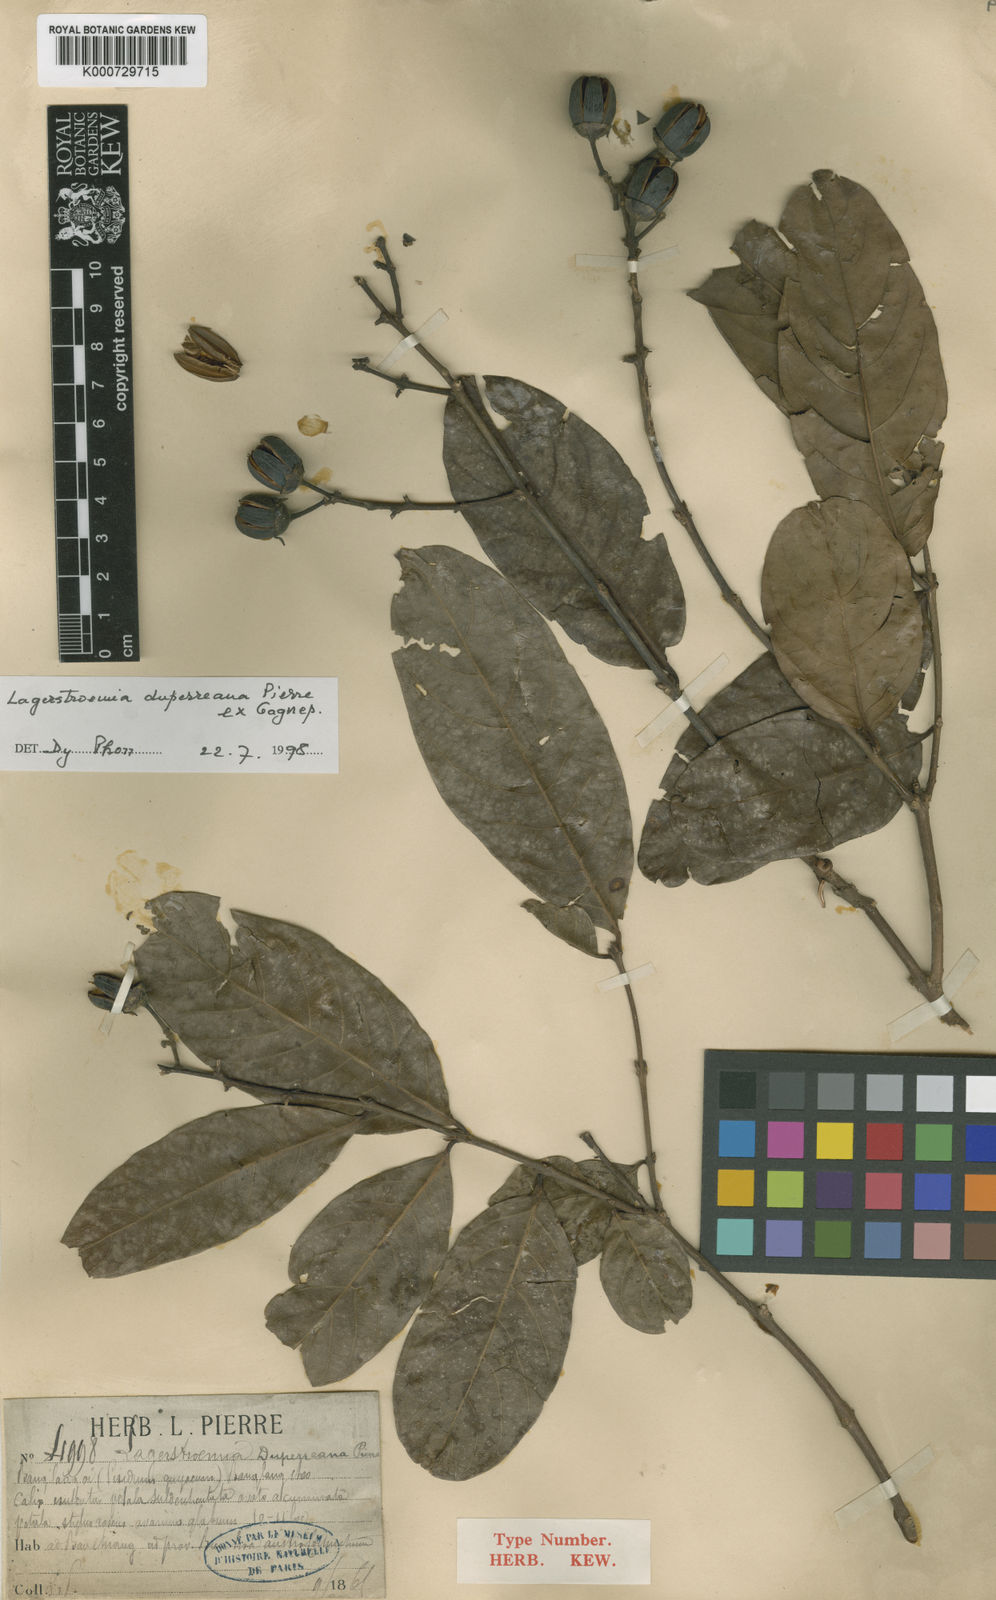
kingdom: Plantae
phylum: Tracheophyta
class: Magnoliopsida
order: Myrtales
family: Lythraceae
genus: Lagerstroemia
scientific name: Lagerstroemia
